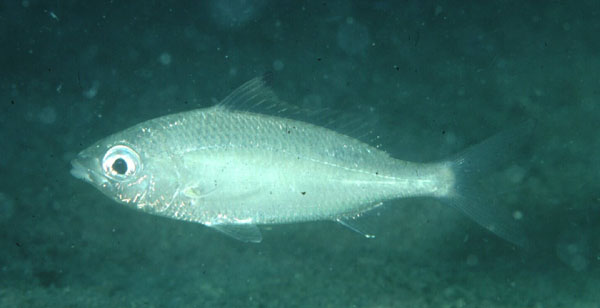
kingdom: Animalia
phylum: Chordata
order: Perciformes
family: Gerreidae
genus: Gerres
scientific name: Gerres oyena
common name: Common silver-biddy
